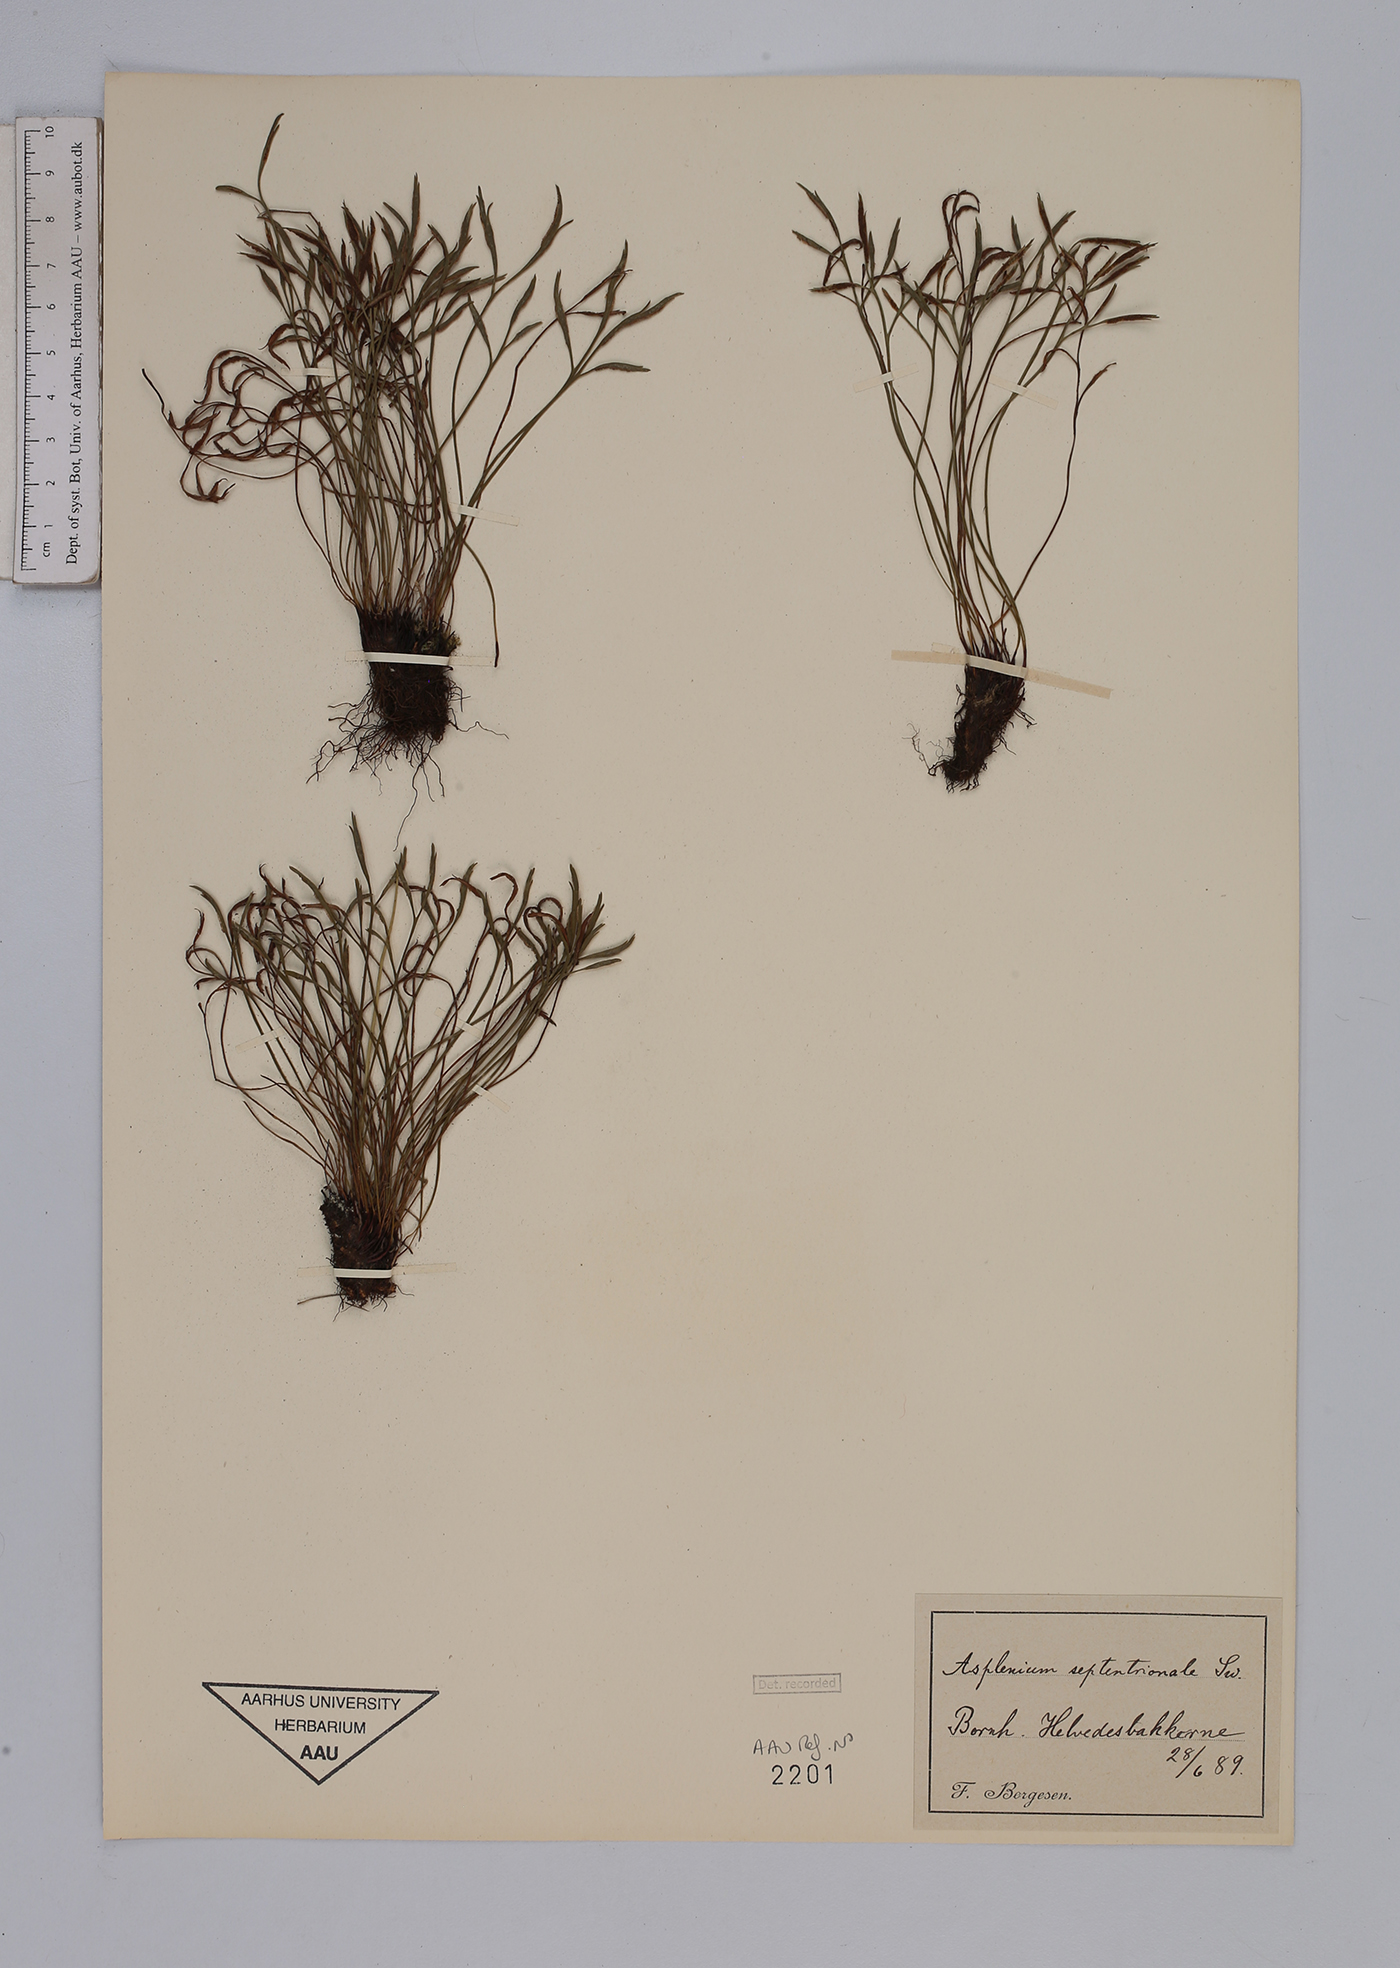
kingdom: Plantae
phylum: Tracheophyta
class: Polypodiopsida
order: Polypodiales
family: Aspleniaceae
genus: Asplenium
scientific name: Asplenium septentrionale
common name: Forked spleenwort
